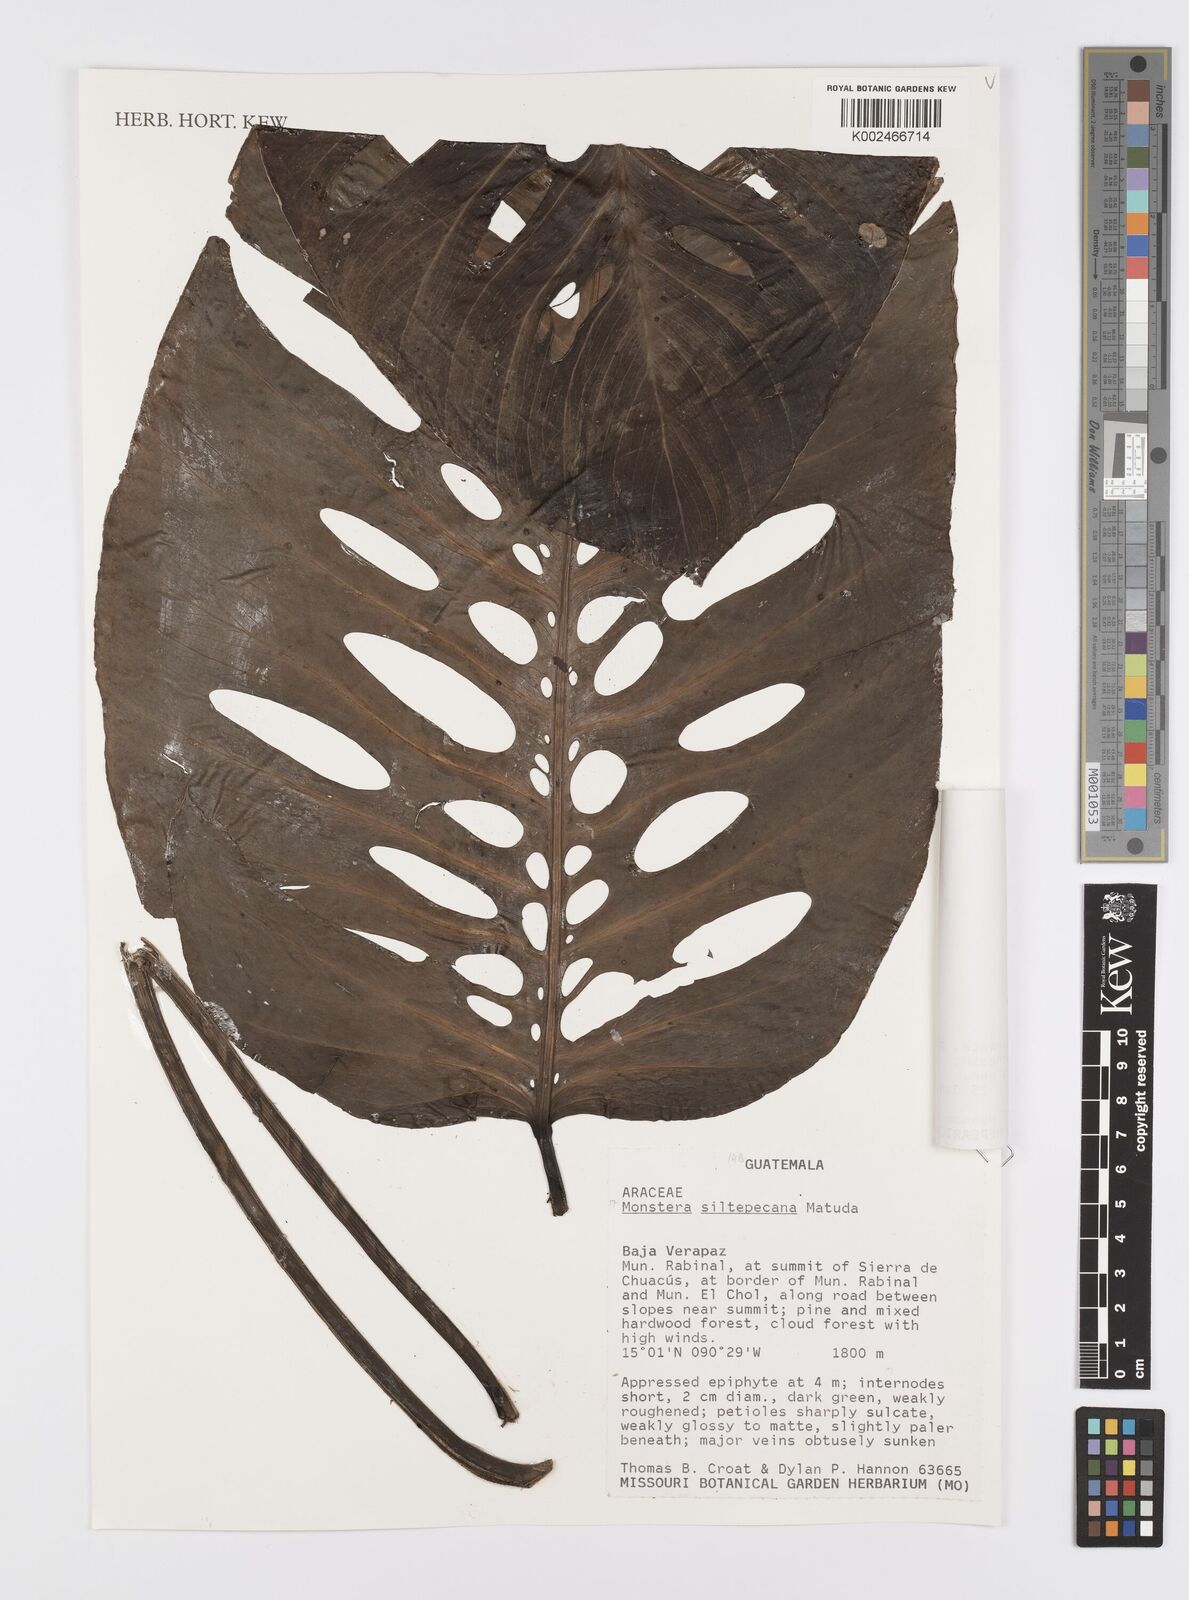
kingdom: Plantae
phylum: Tracheophyta
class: Liliopsida
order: Alismatales
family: Araceae
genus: Monstera
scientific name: Monstera siltepecana
